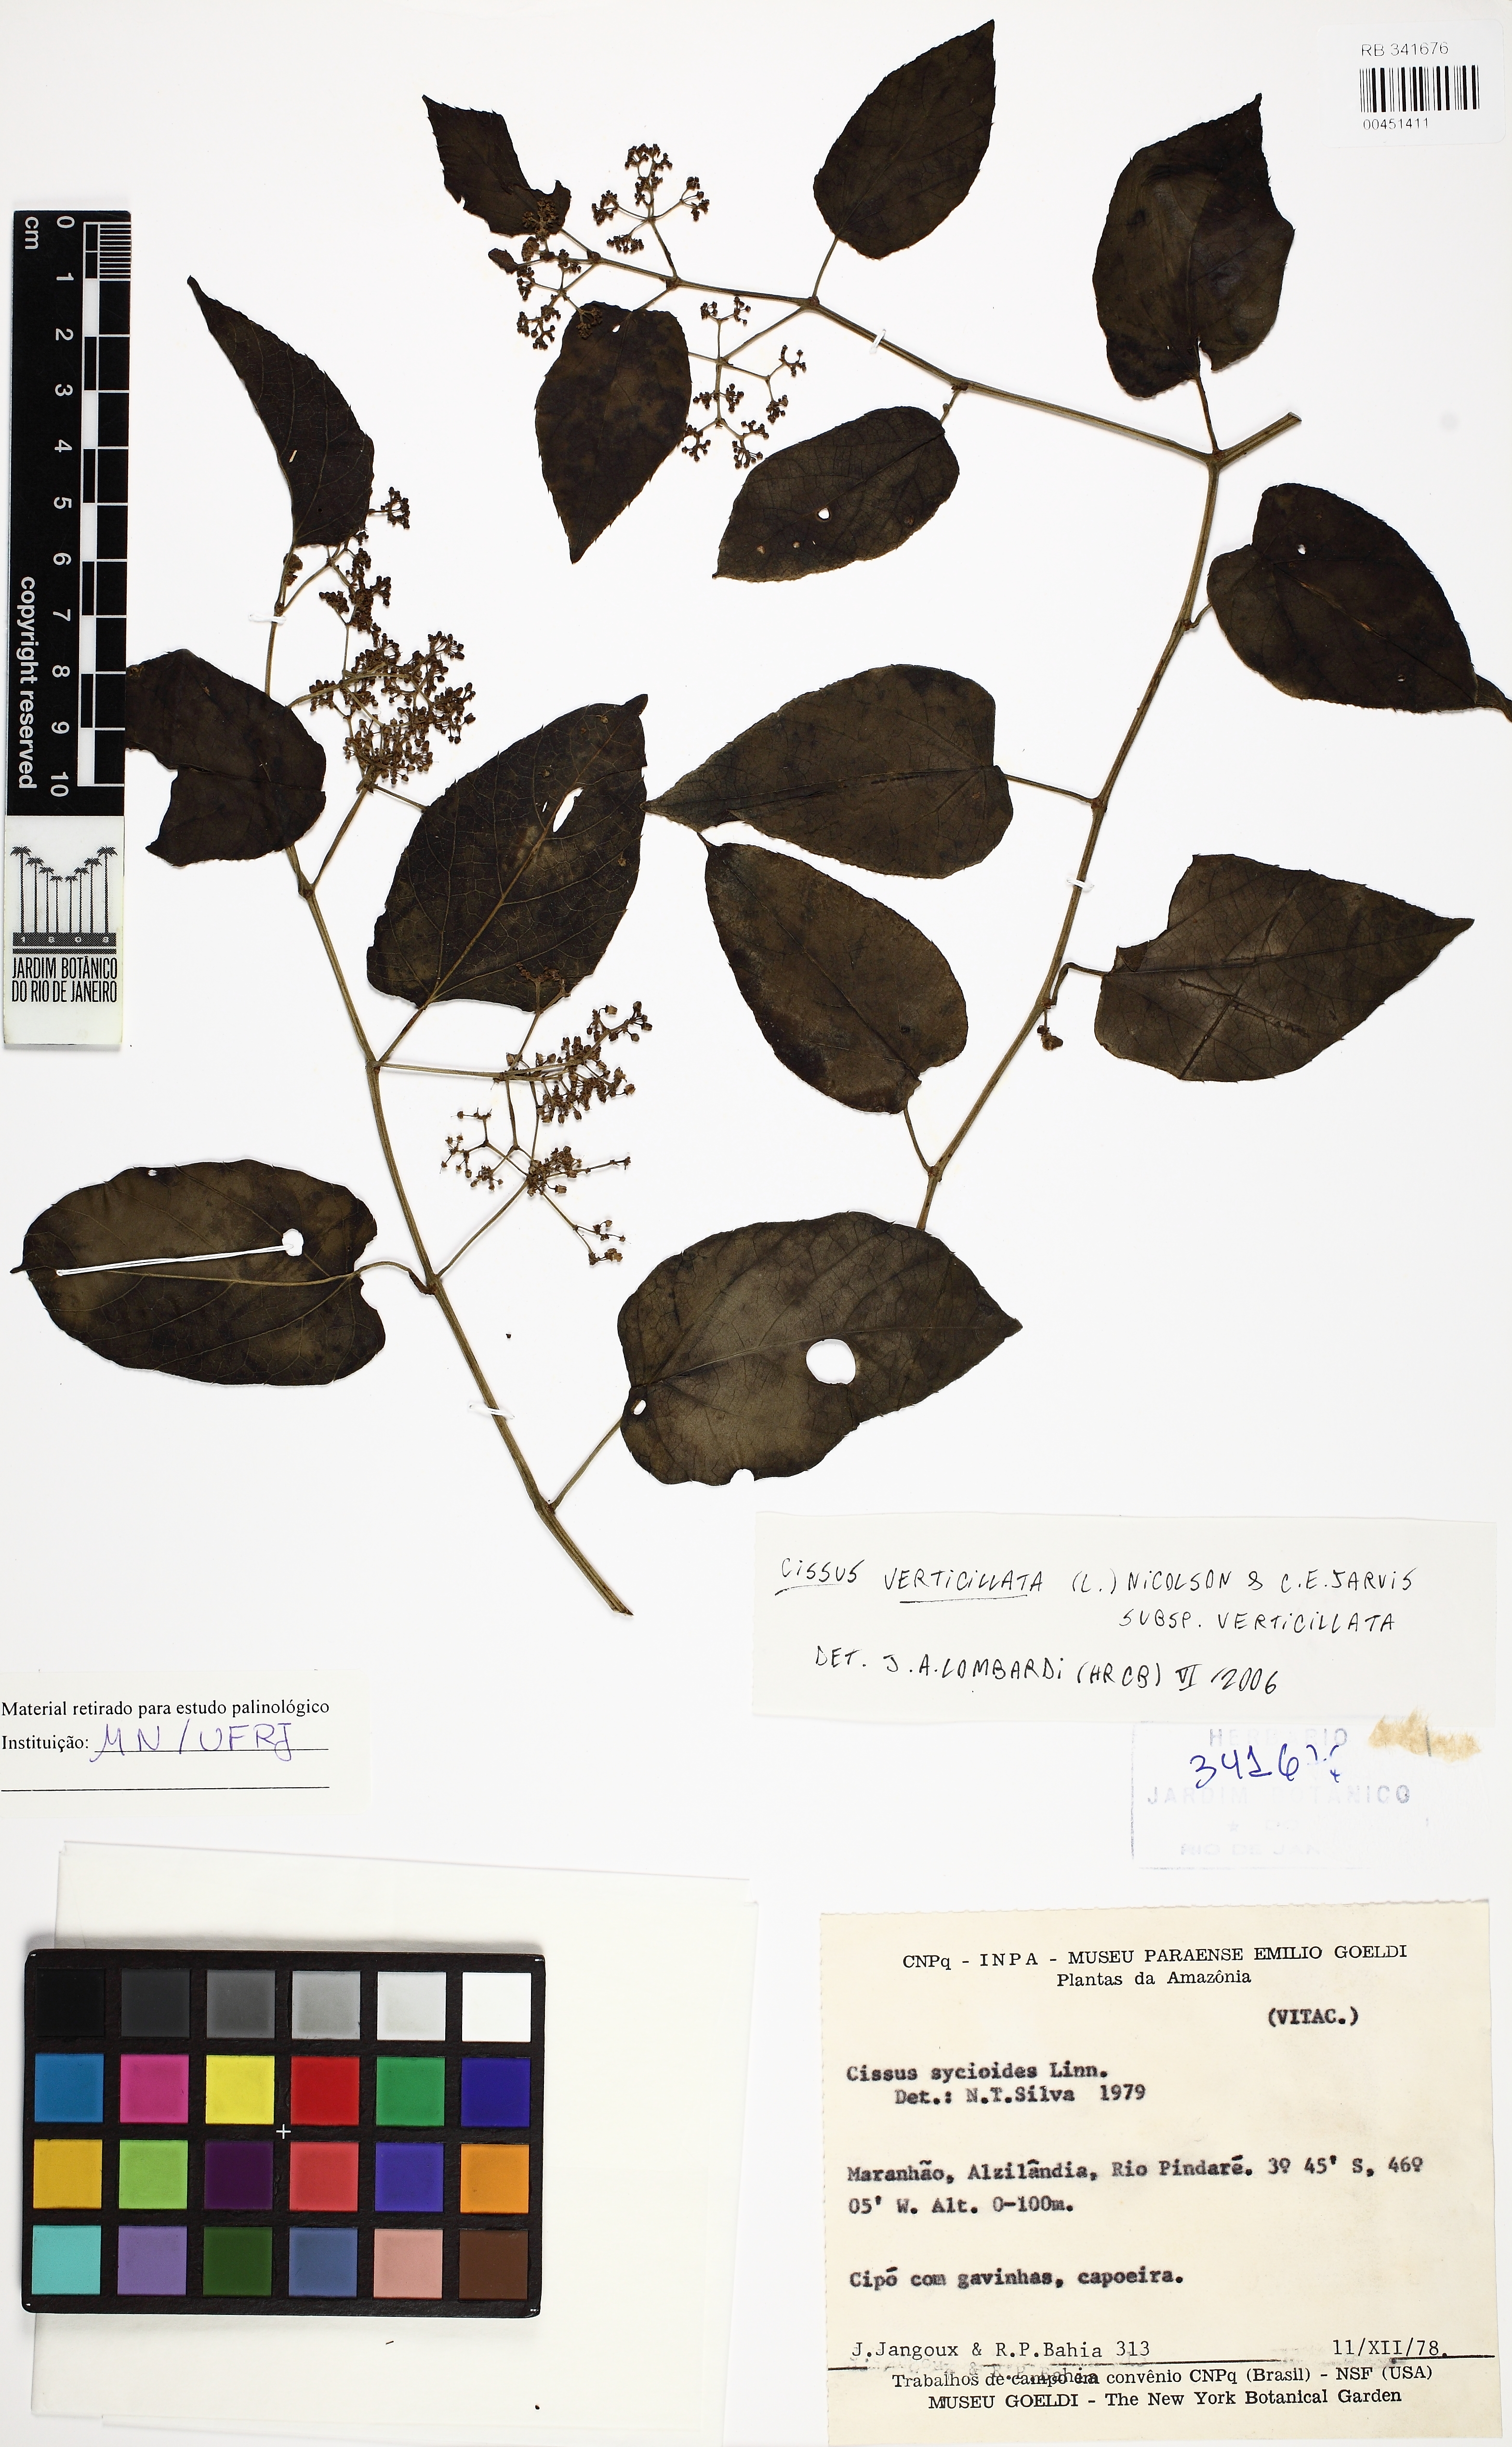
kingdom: Plantae
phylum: Tracheophyta
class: Magnoliopsida
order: Vitales
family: Vitaceae
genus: Cissus
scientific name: Cissus verticillata
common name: Princess vine
